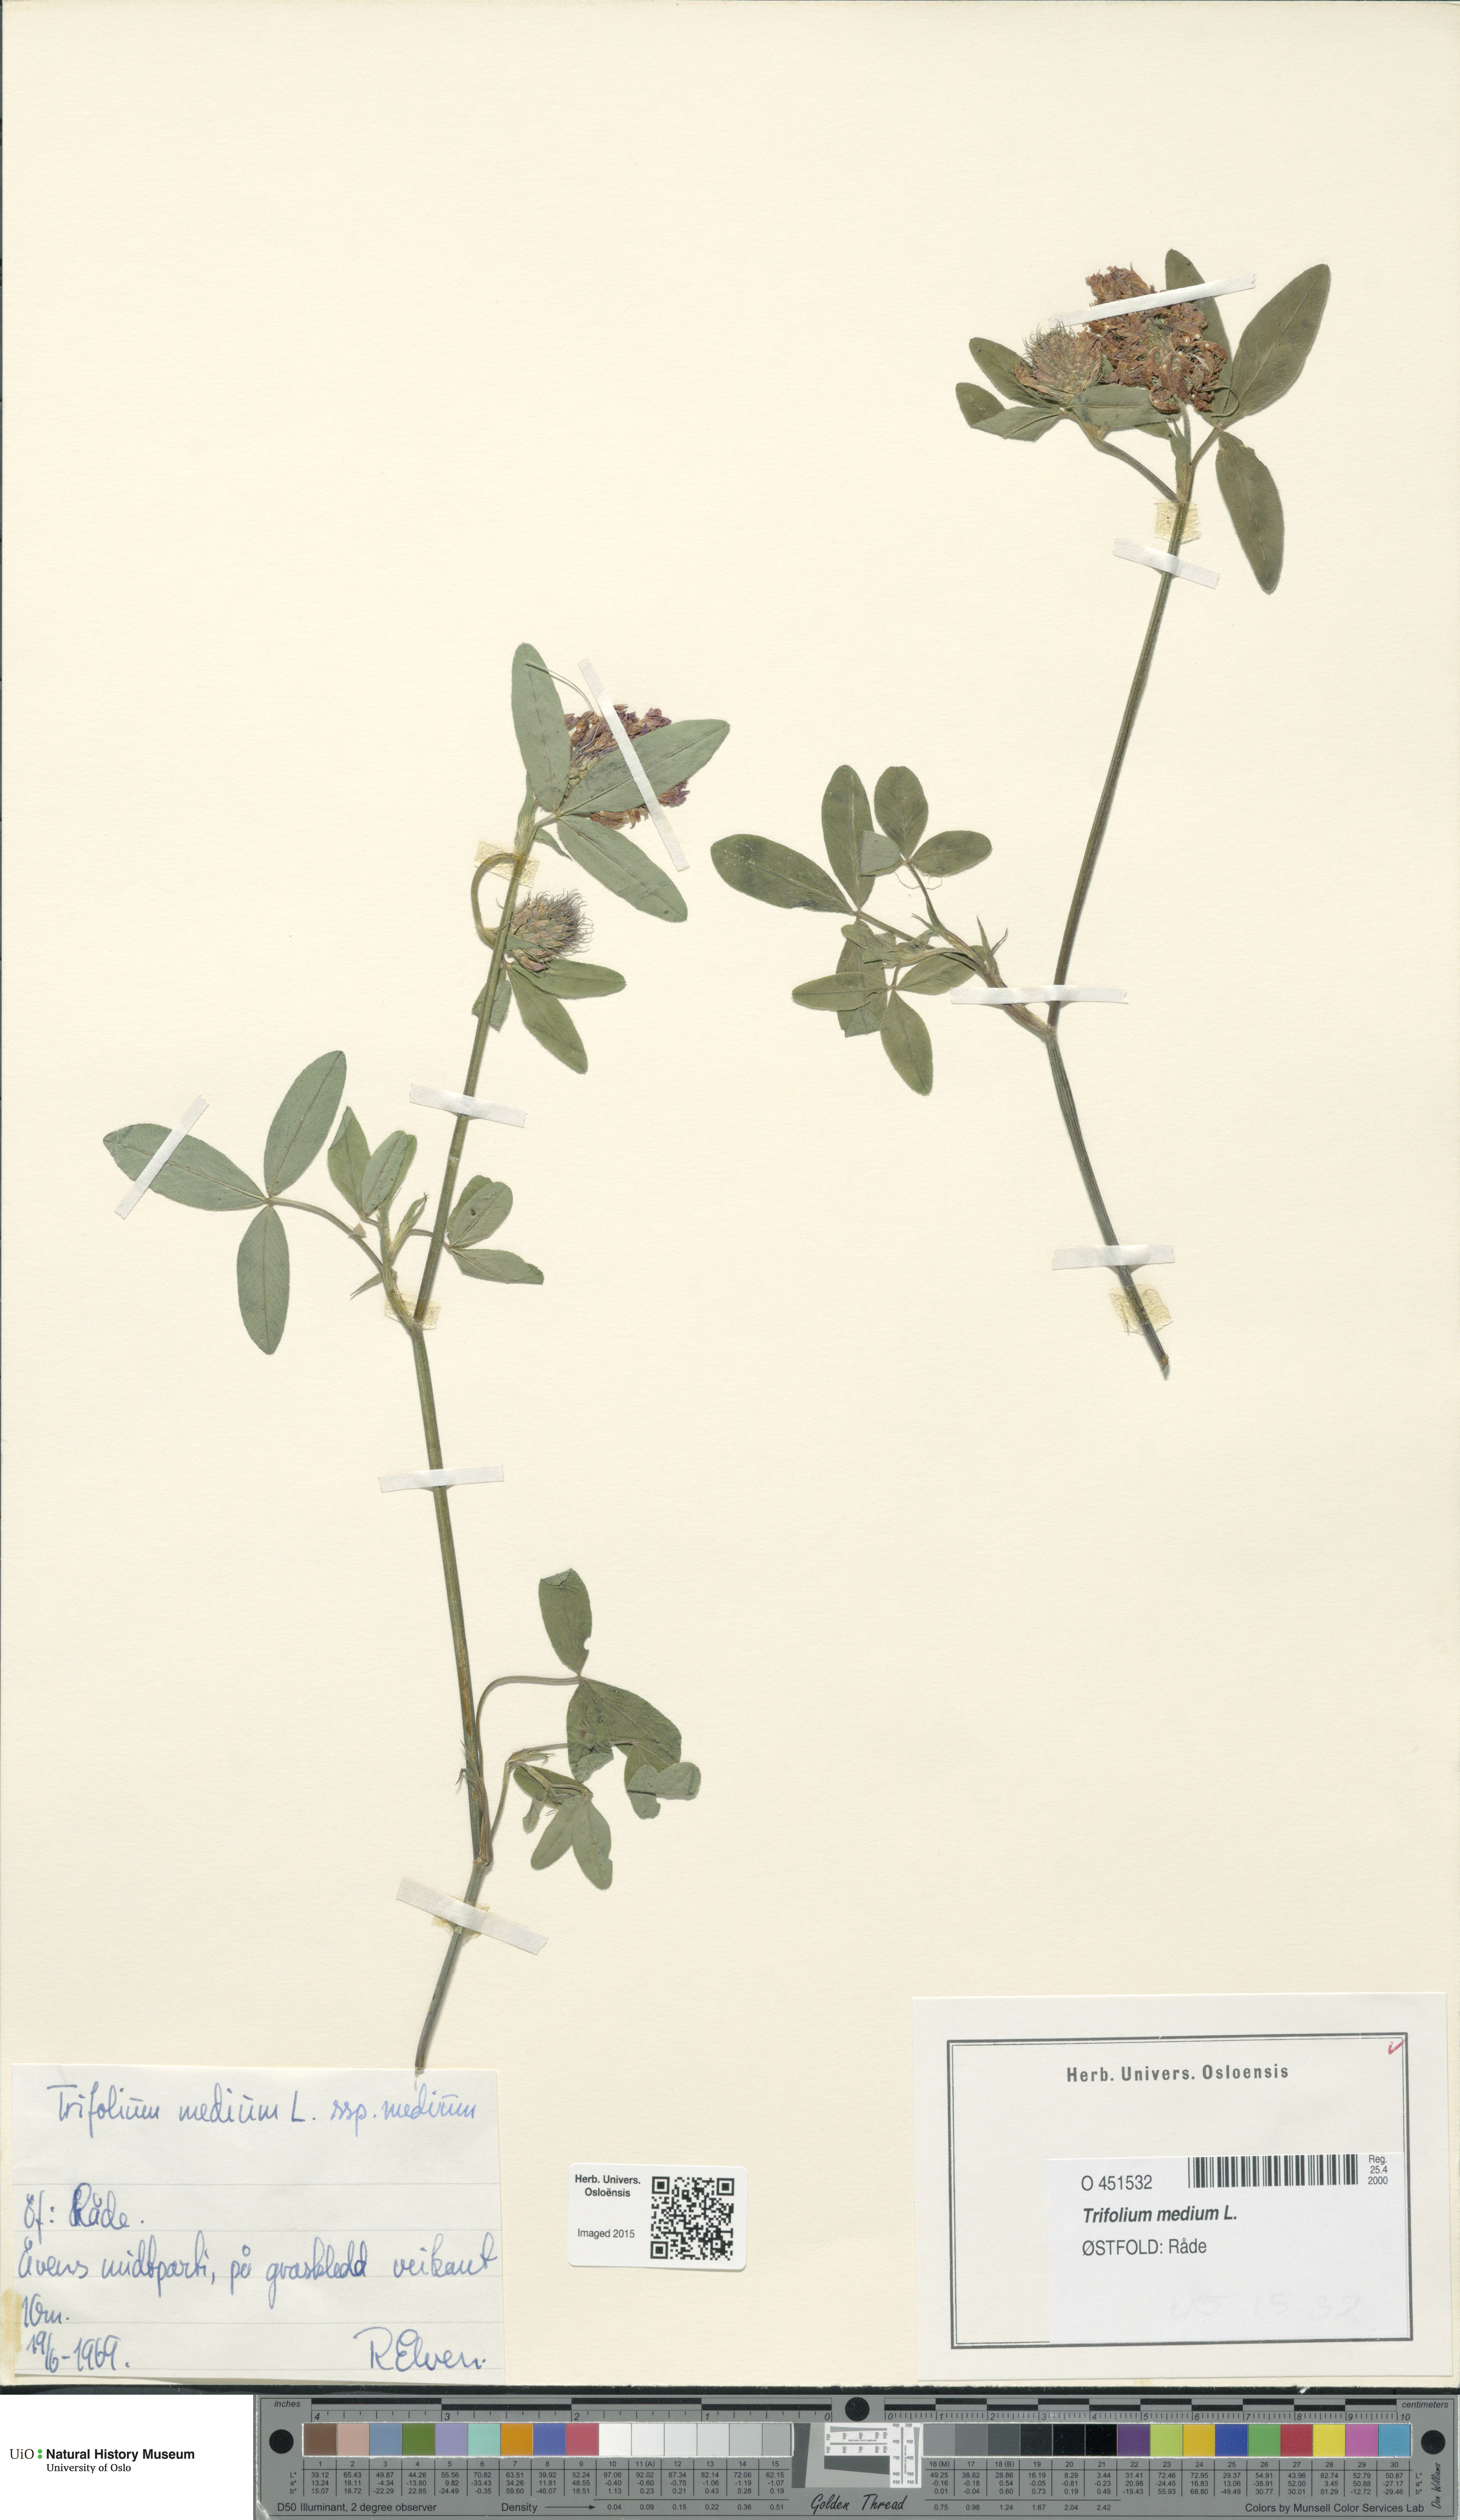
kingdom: Plantae
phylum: Tracheophyta
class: Magnoliopsida
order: Fabales
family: Fabaceae
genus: Trifolium
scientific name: Trifolium medium
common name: Zigzag clover
